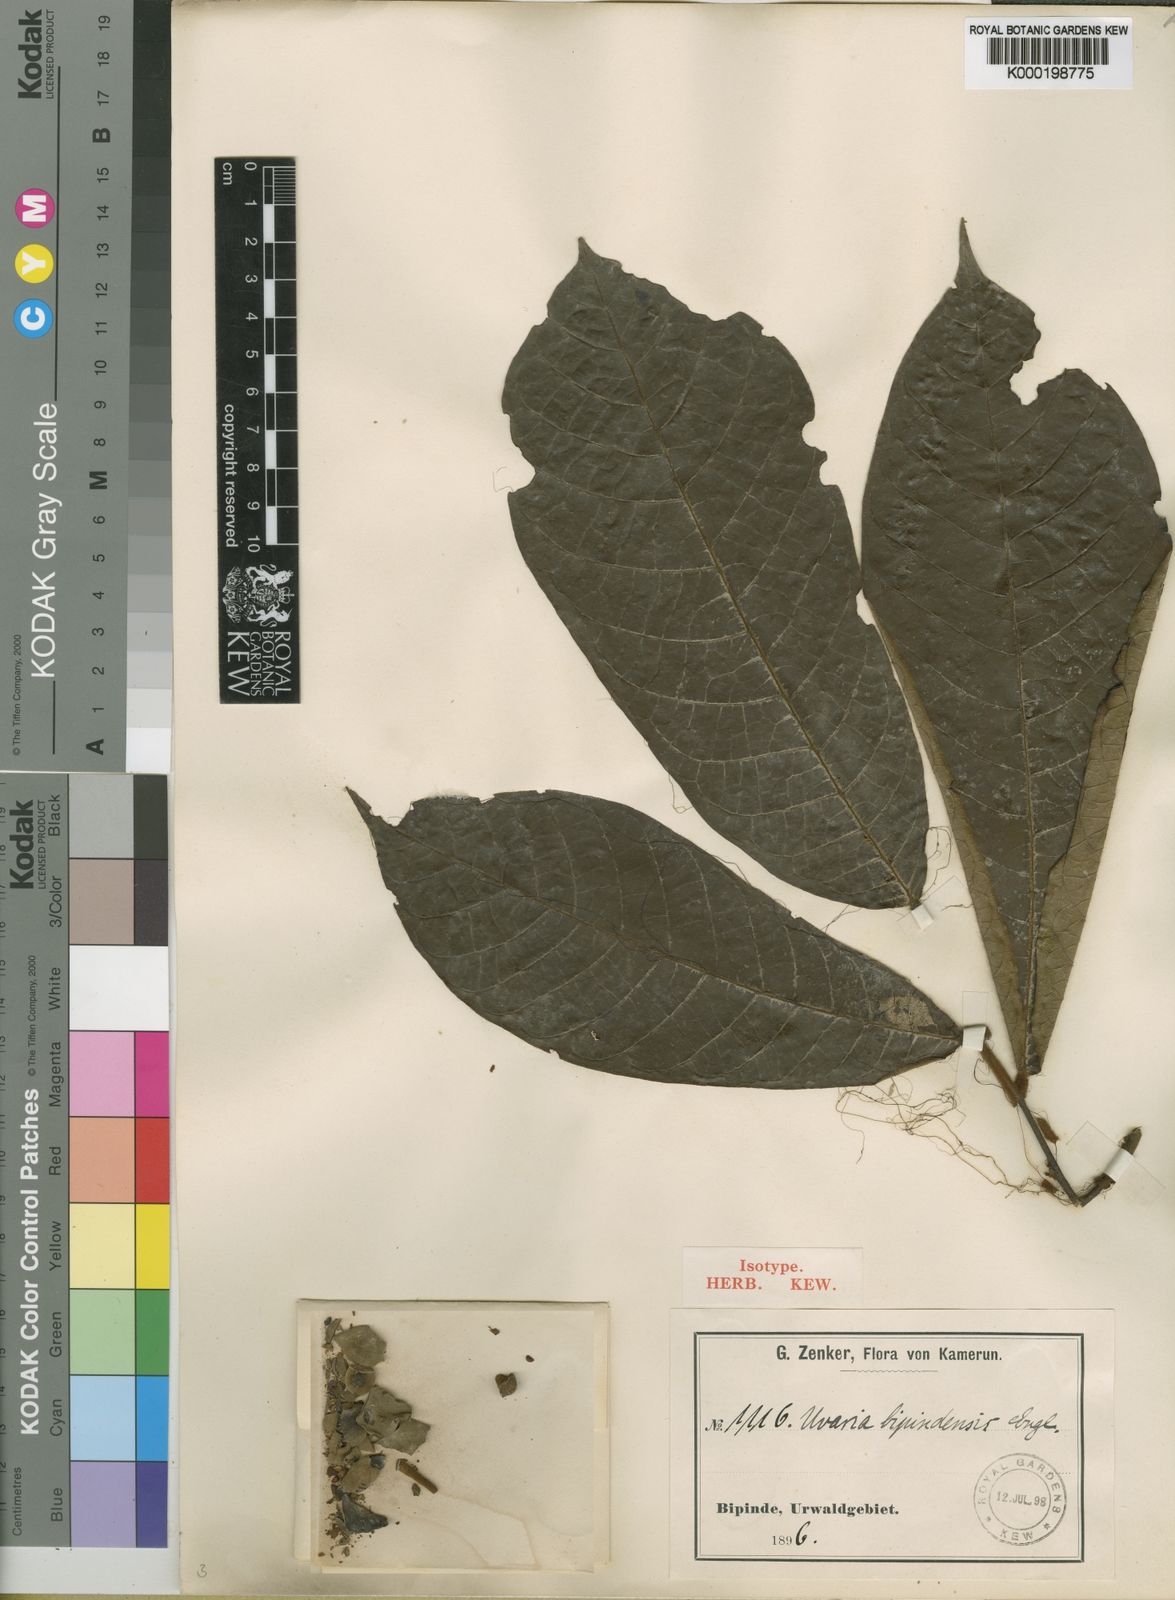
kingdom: Plantae
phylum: Tracheophyta
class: Magnoliopsida
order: Magnoliales
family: Annonaceae
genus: Uvaria
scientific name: Uvaria bipindensis
